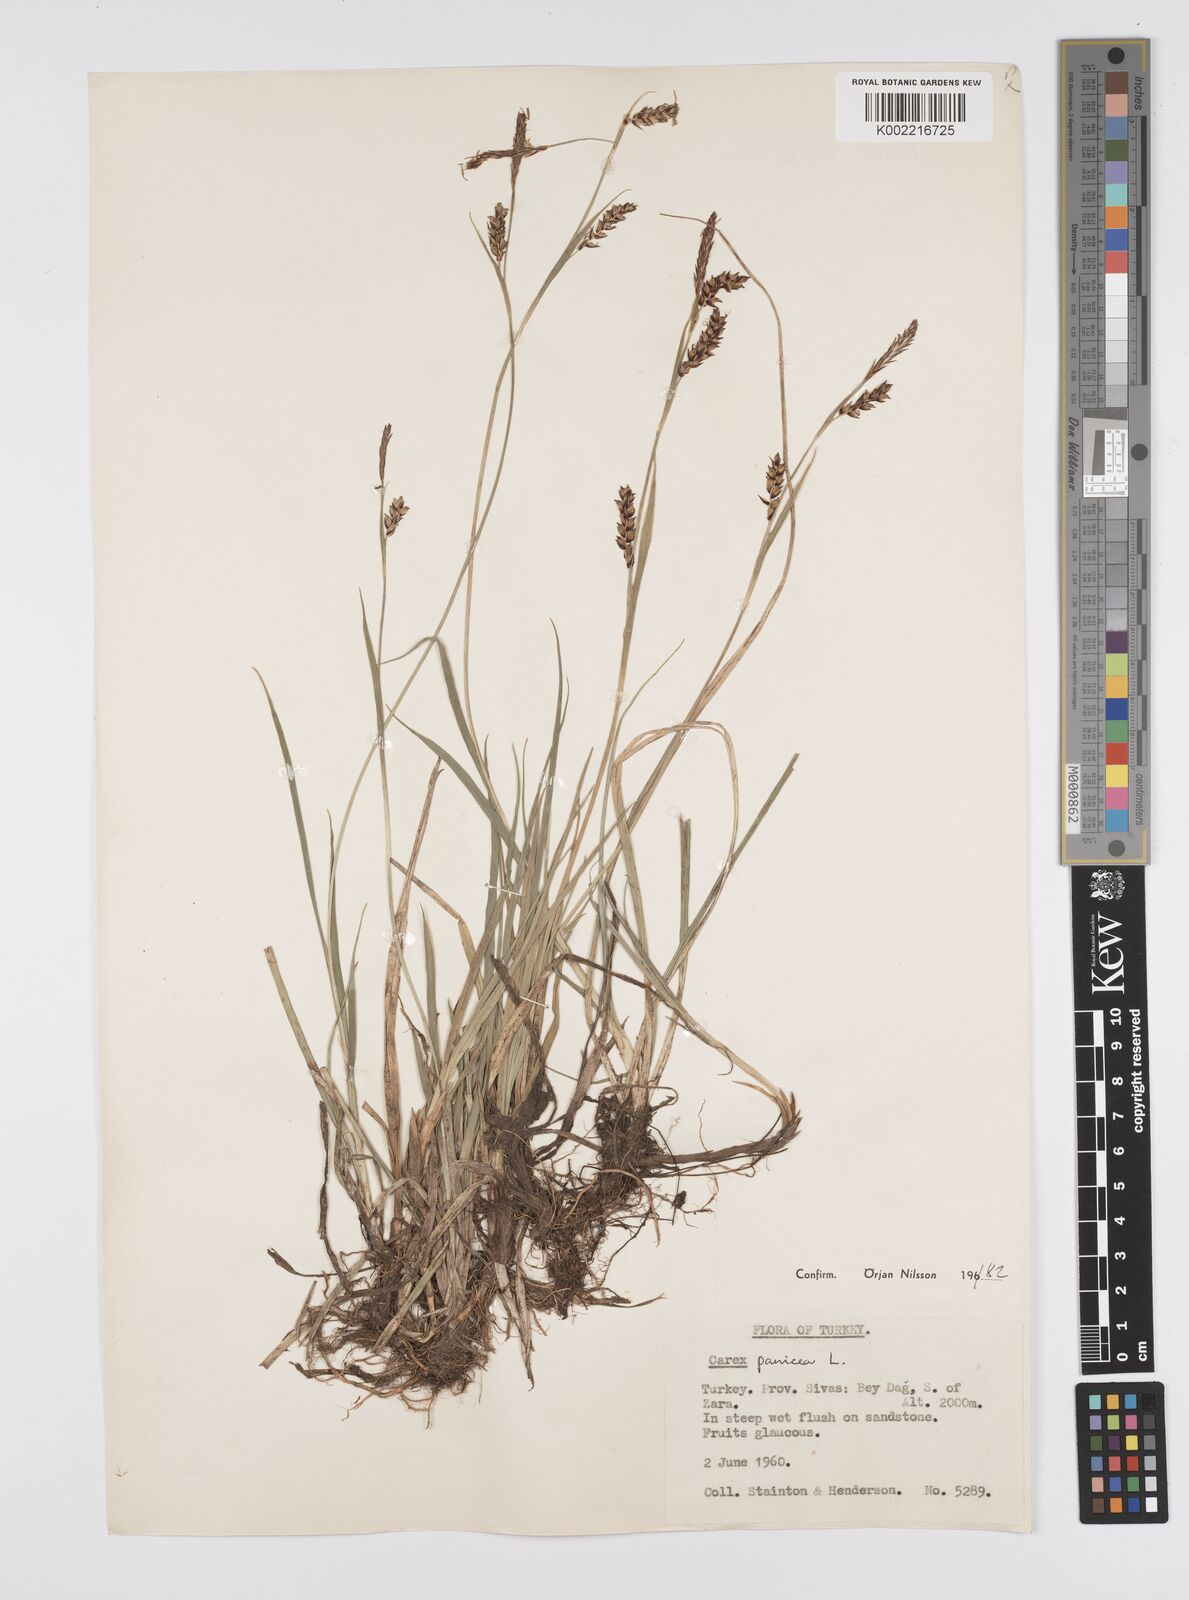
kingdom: Plantae
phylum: Tracheophyta
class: Liliopsida
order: Poales
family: Cyperaceae
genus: Carex
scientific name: Carex panicea
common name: Carnation sedge
